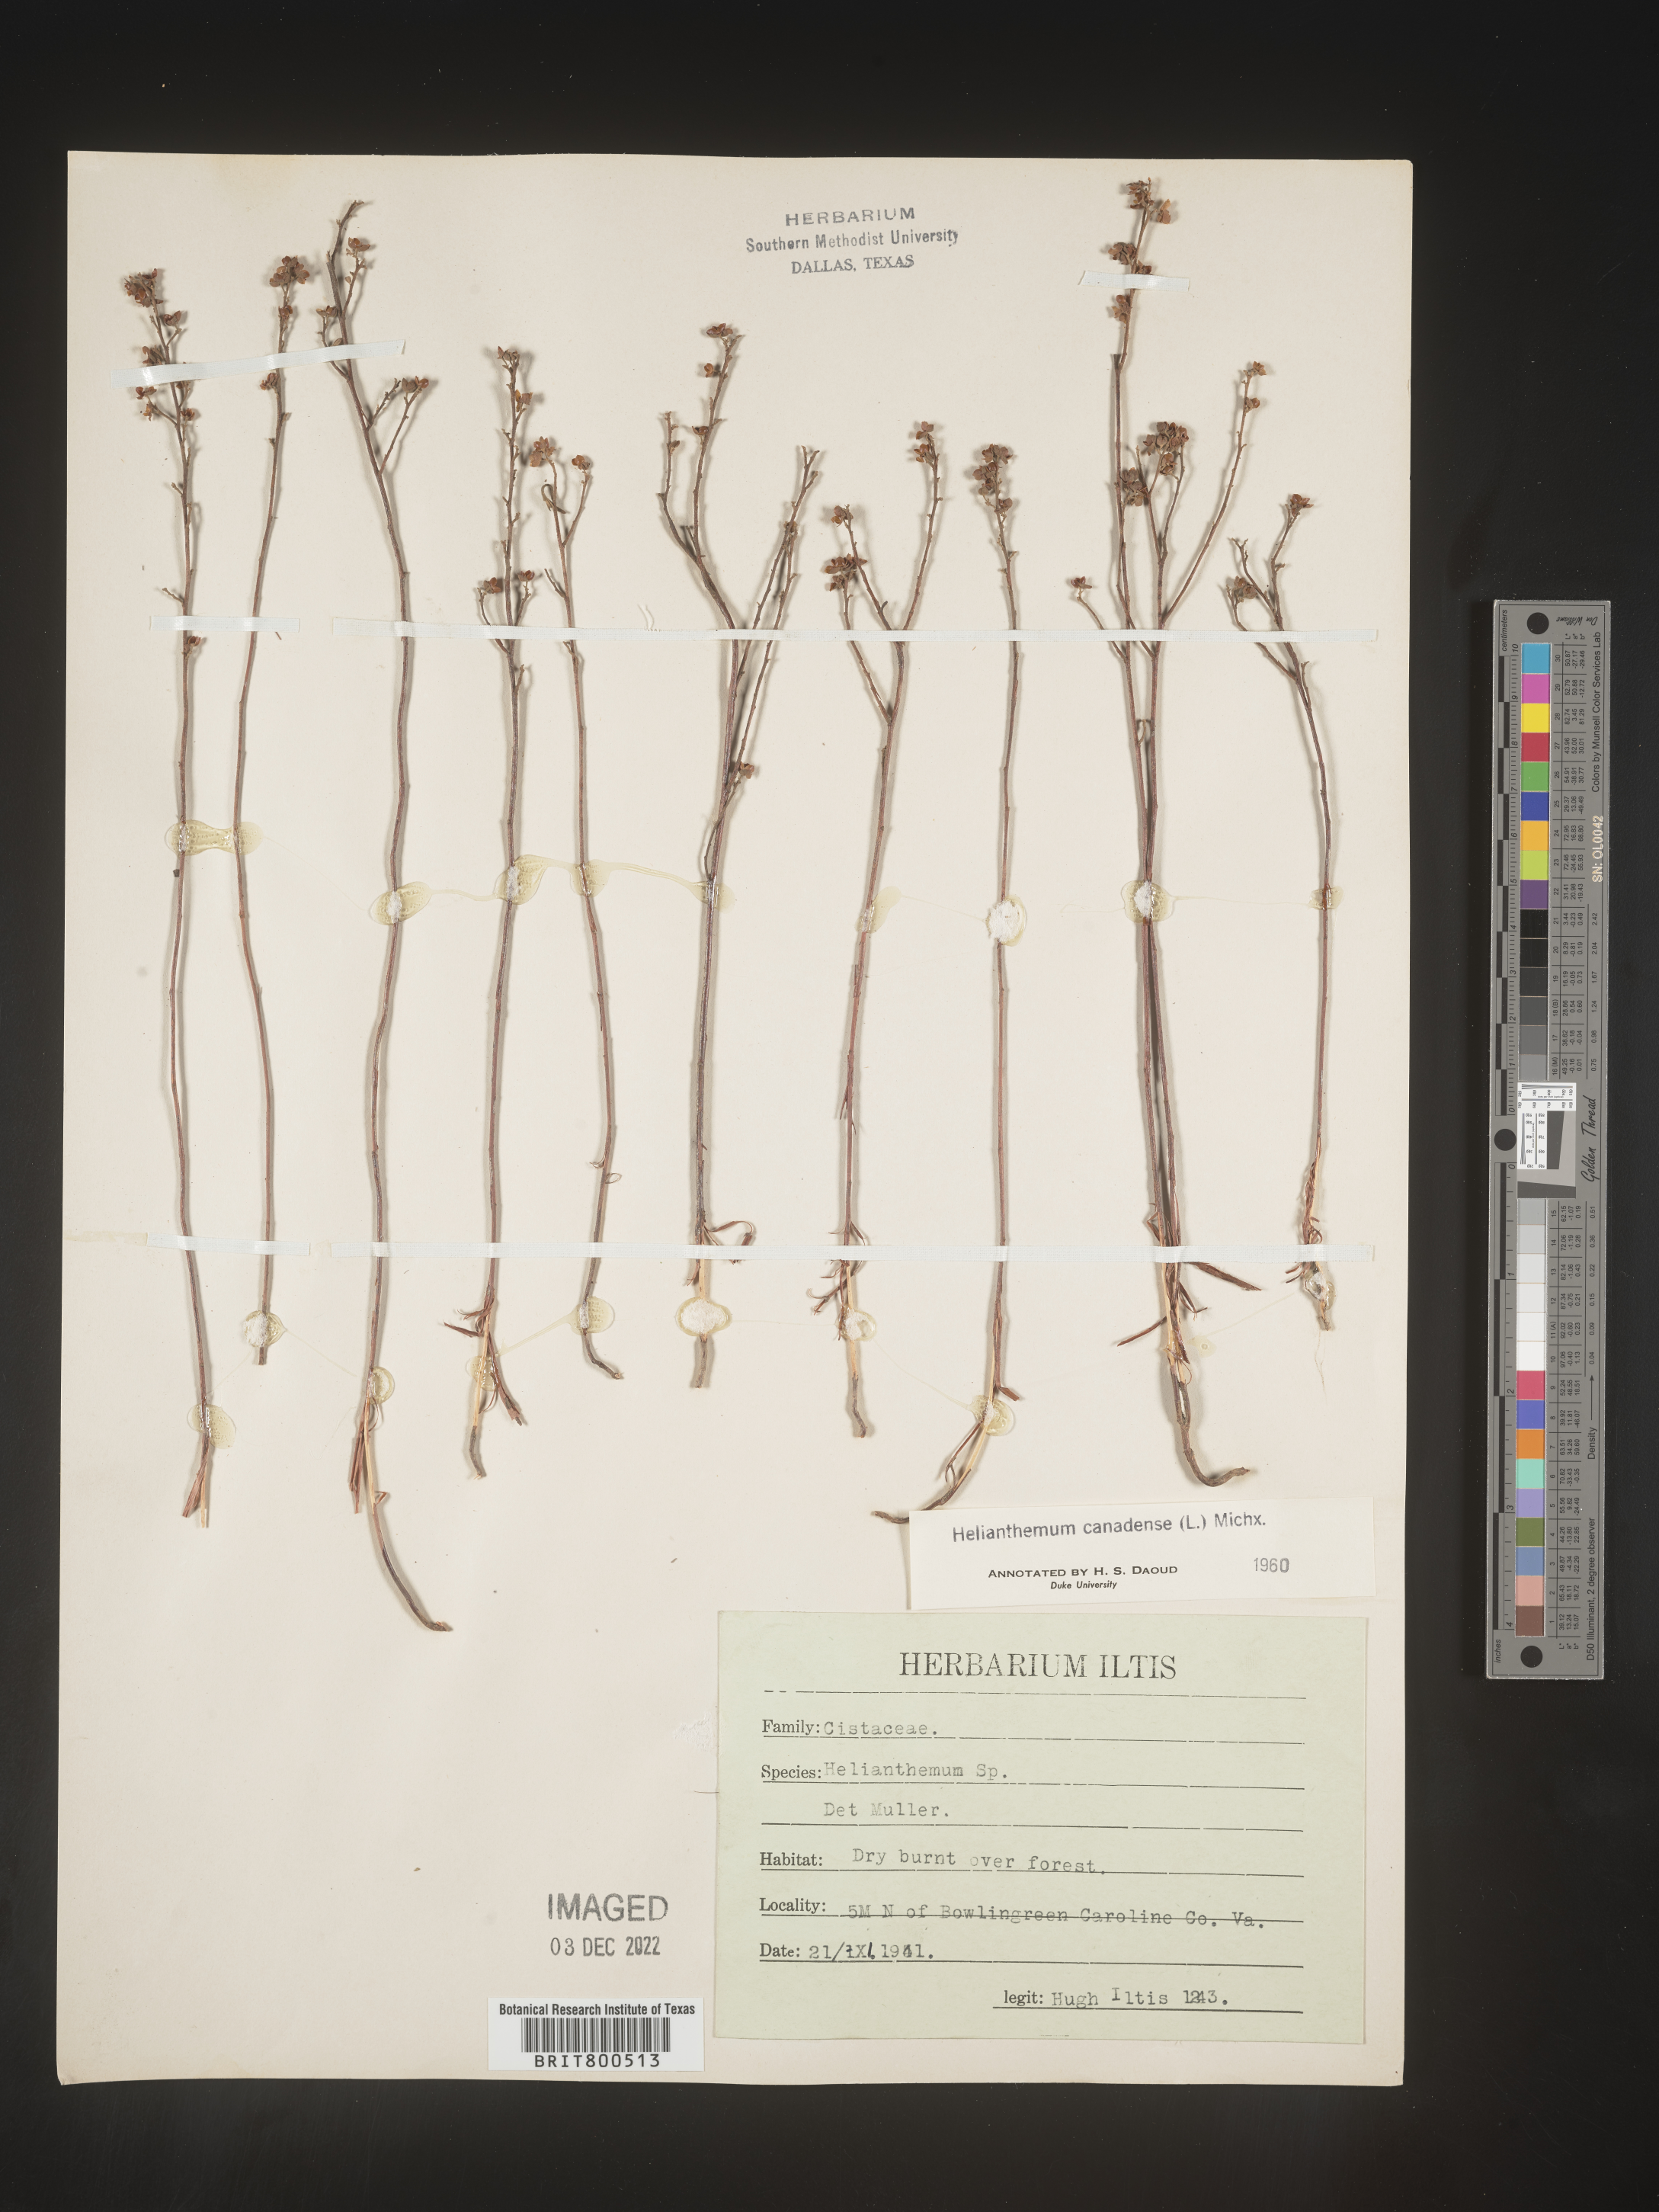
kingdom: Plantae
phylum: Tracheophyta
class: Magnoliopsida
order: Malvales
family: Cistaceae
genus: Crocanthemum
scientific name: Crocanthemum canadense
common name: Canada frostweed
